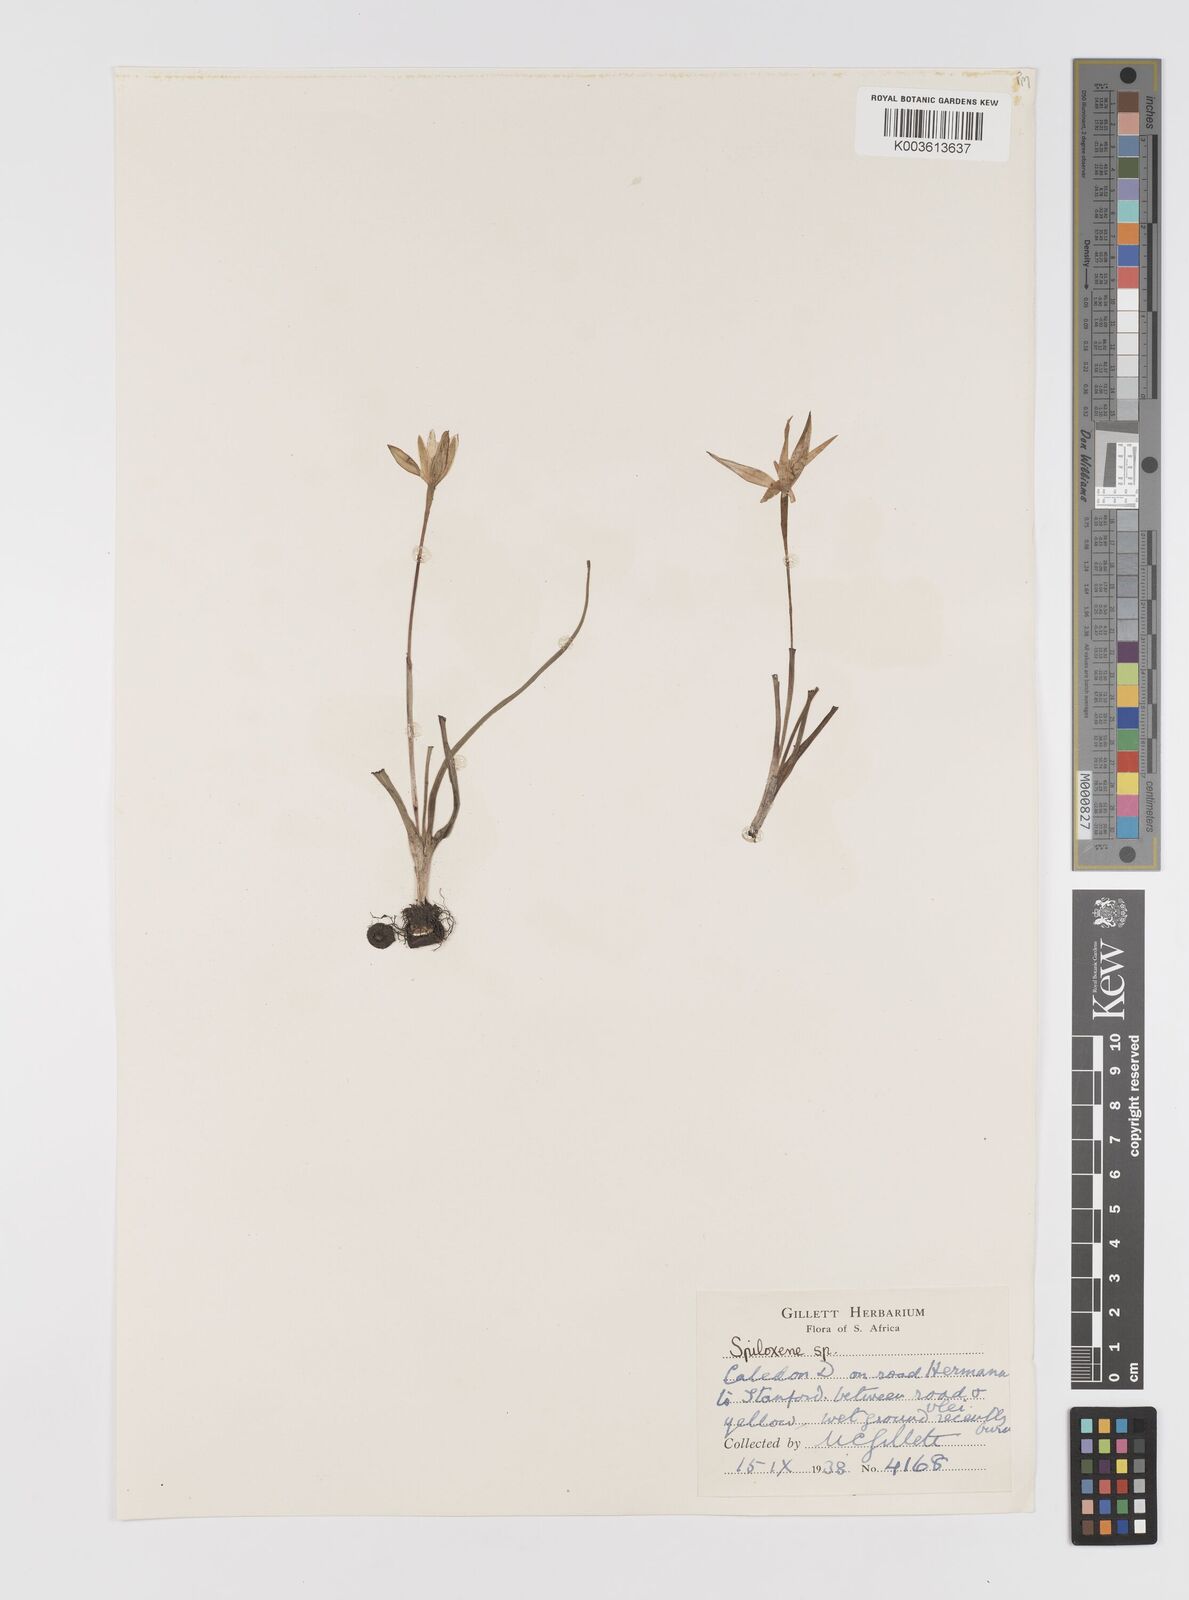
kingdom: Plantae
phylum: Tracheophyta
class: Liliopsida
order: Asparagales
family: Hypoxidaceae
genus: Pauridia
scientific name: Pauridia
